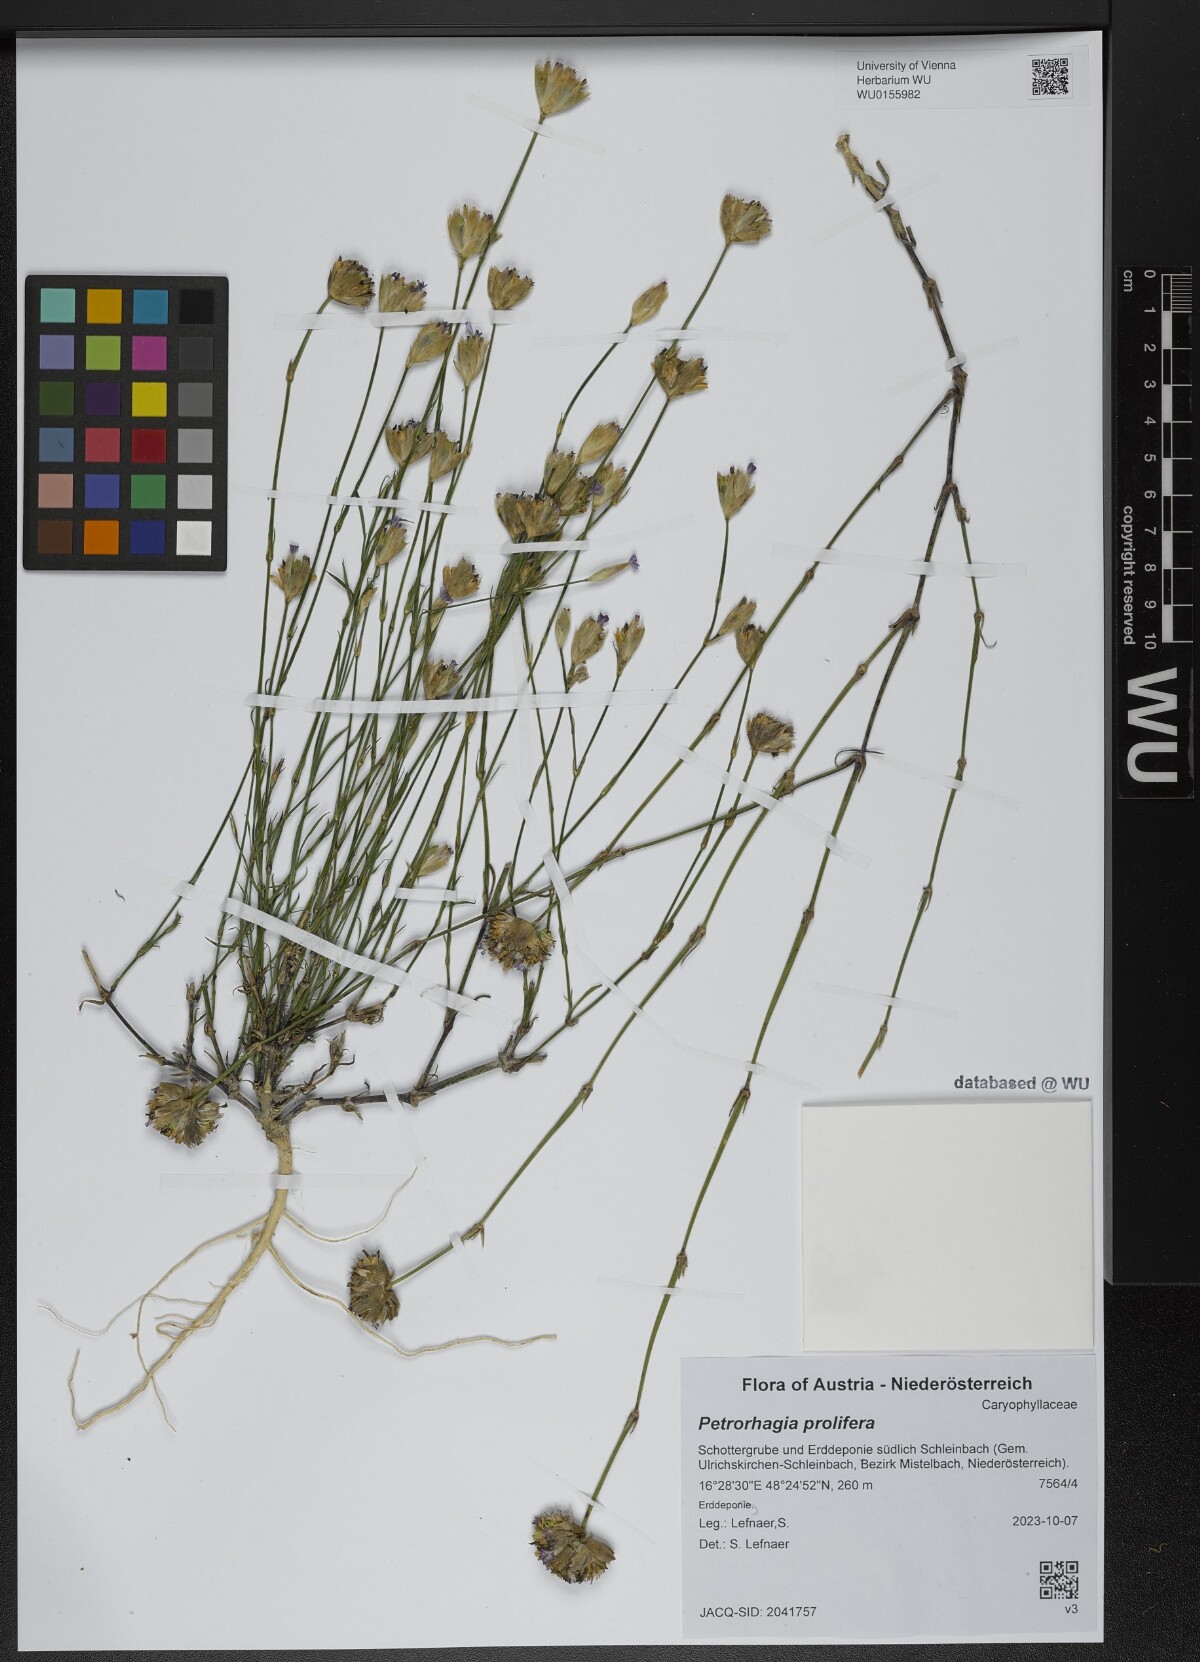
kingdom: Plantae
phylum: Tracheophyta
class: Magnoliopsida
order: Caryophyllales
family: Caryophyllaceae
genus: Petrorhagia
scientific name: Petrorhagia prolifera
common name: Proliferous pink
